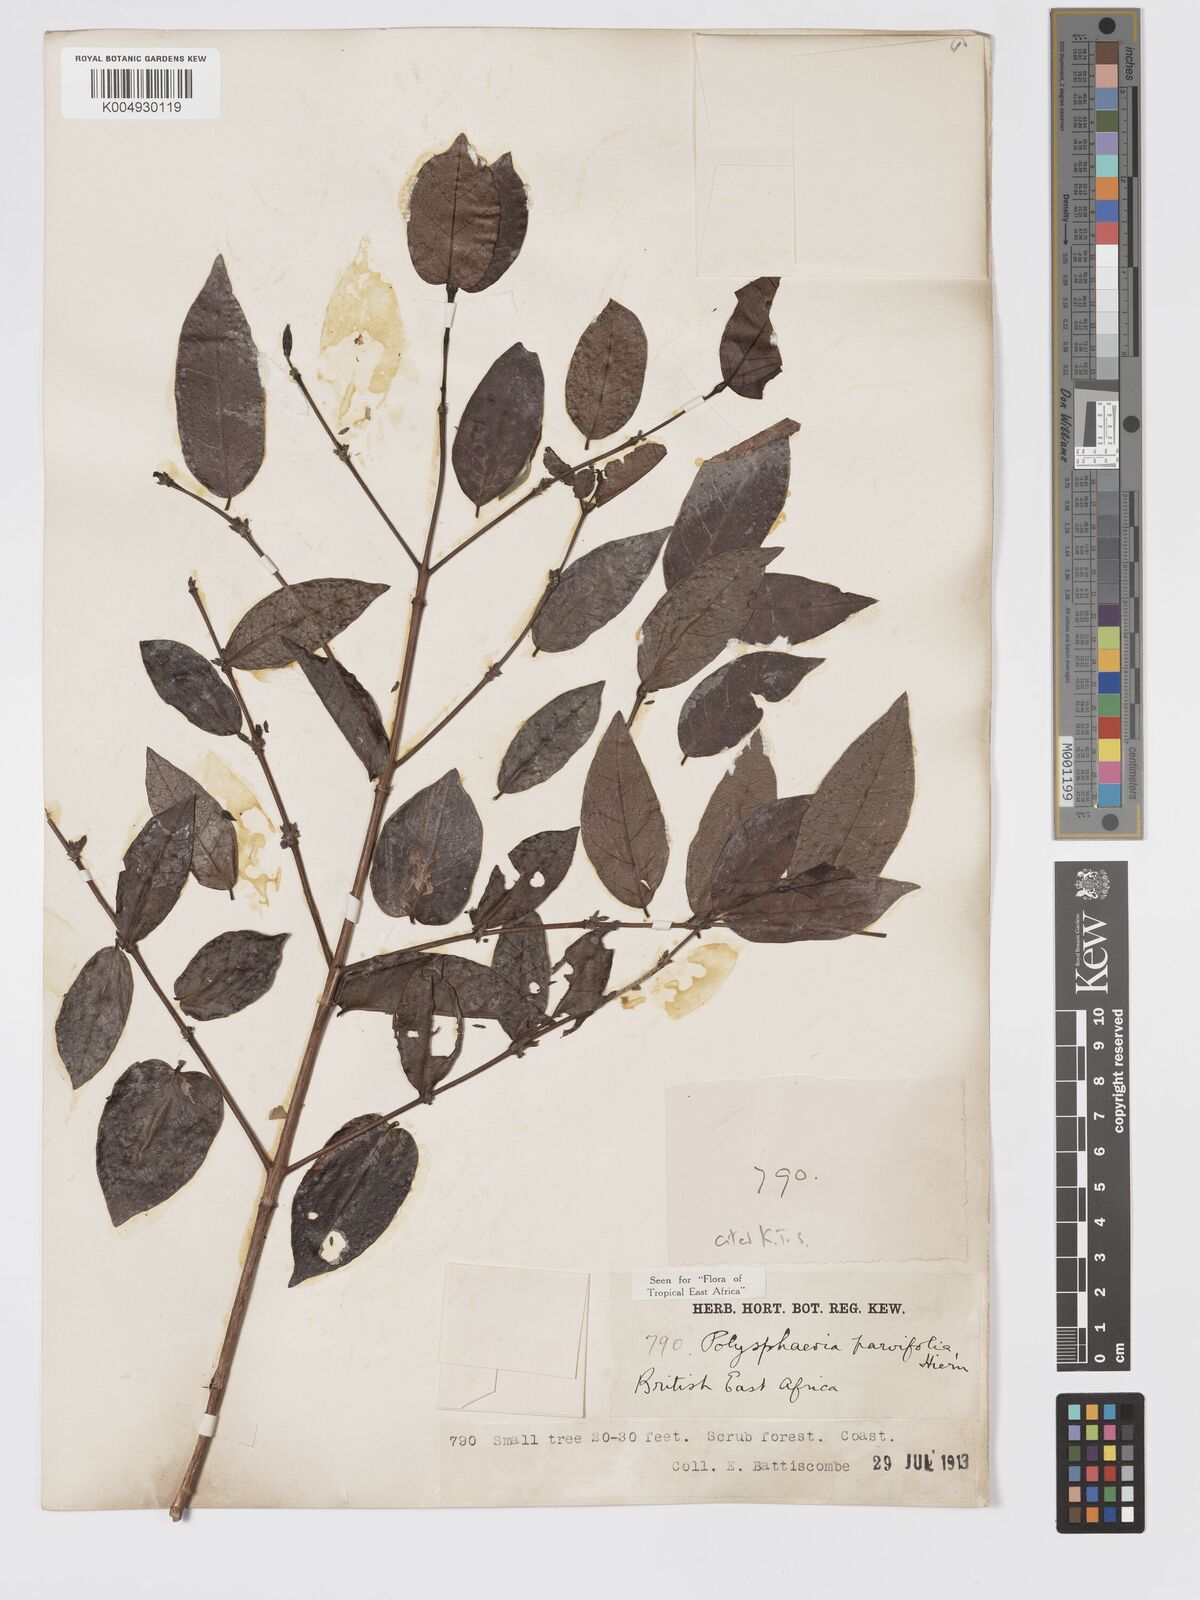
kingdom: Plantae
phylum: Tracheophyta
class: Magnoliopsida
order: Gentianales
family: Rubiaceae
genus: Polysphaeria
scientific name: Polysphaeria parvifolia
